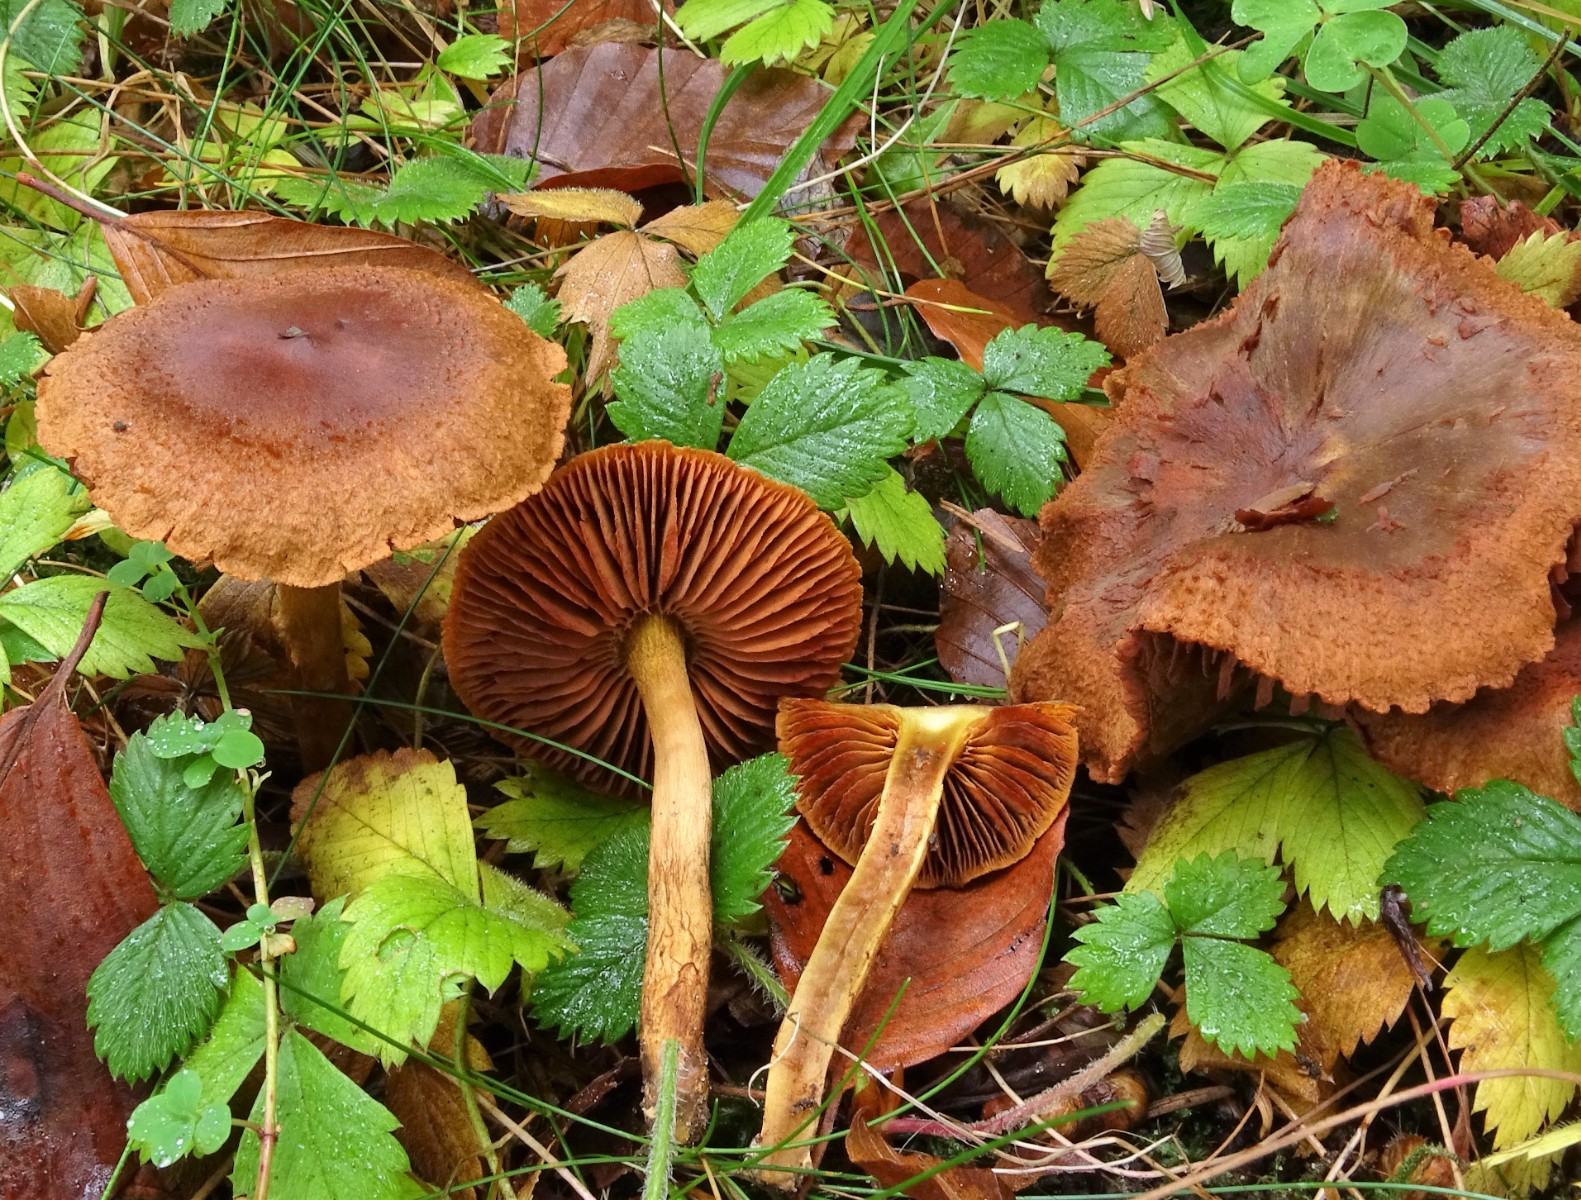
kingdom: Fungi
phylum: Basidiomycota
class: Agaricomycetes
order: Agaricales
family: Cortinariaceae
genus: Cortinarius
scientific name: Cortinarius cinnamomeus
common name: kanel-slørhat
